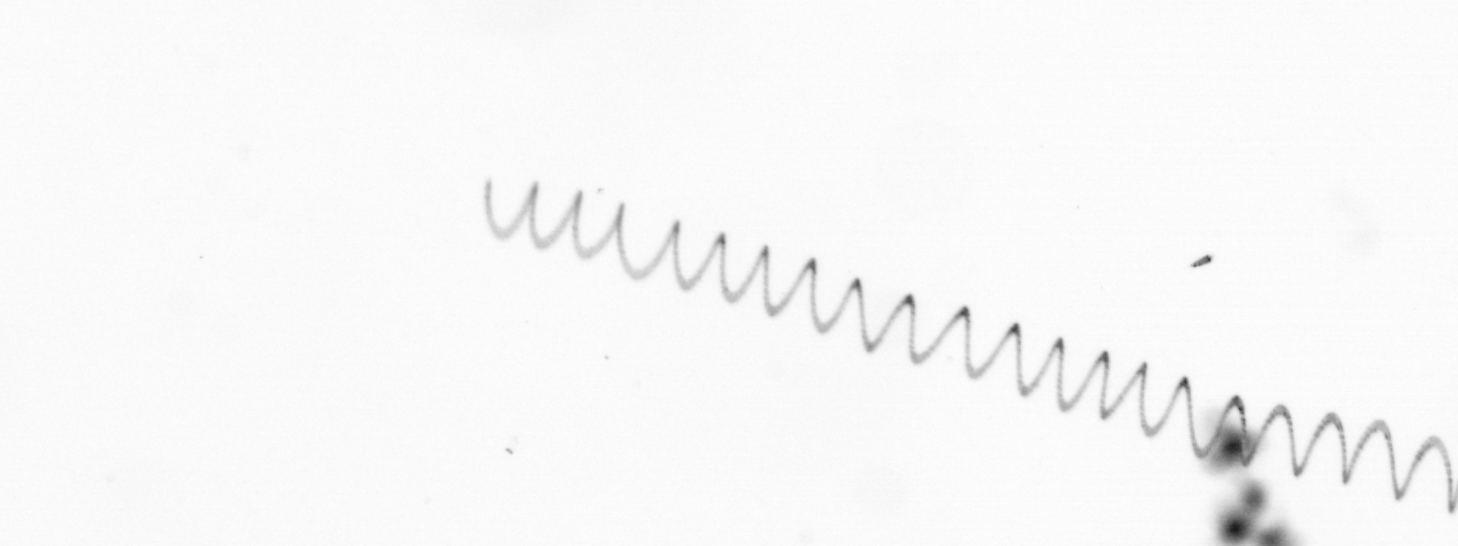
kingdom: Chromista
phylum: Ochrophyta
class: Bacillariophyceae
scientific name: Bacillariophyceae
